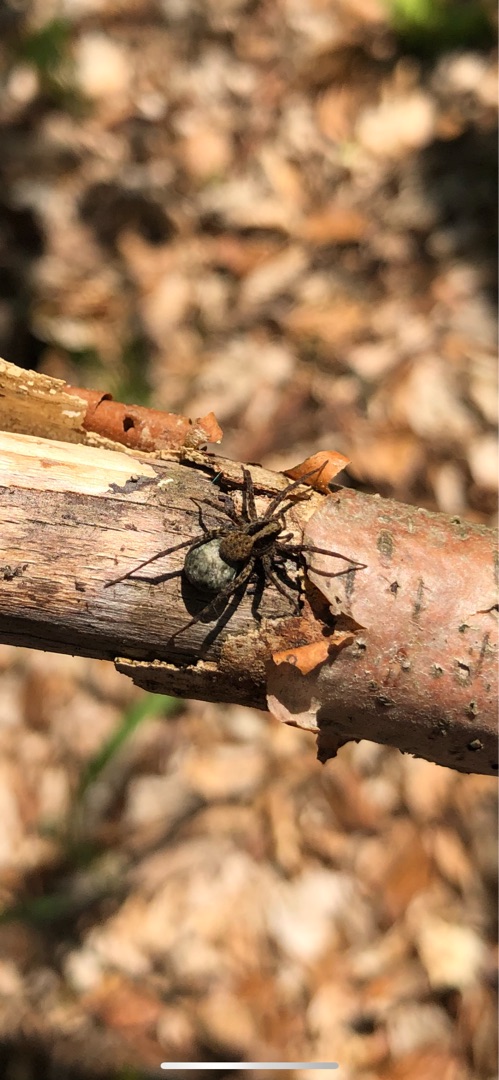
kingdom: Animalia
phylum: Arthropoda
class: Arachnida
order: Araneae
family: Lycosidae
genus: Pardosa
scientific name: Pardosa
